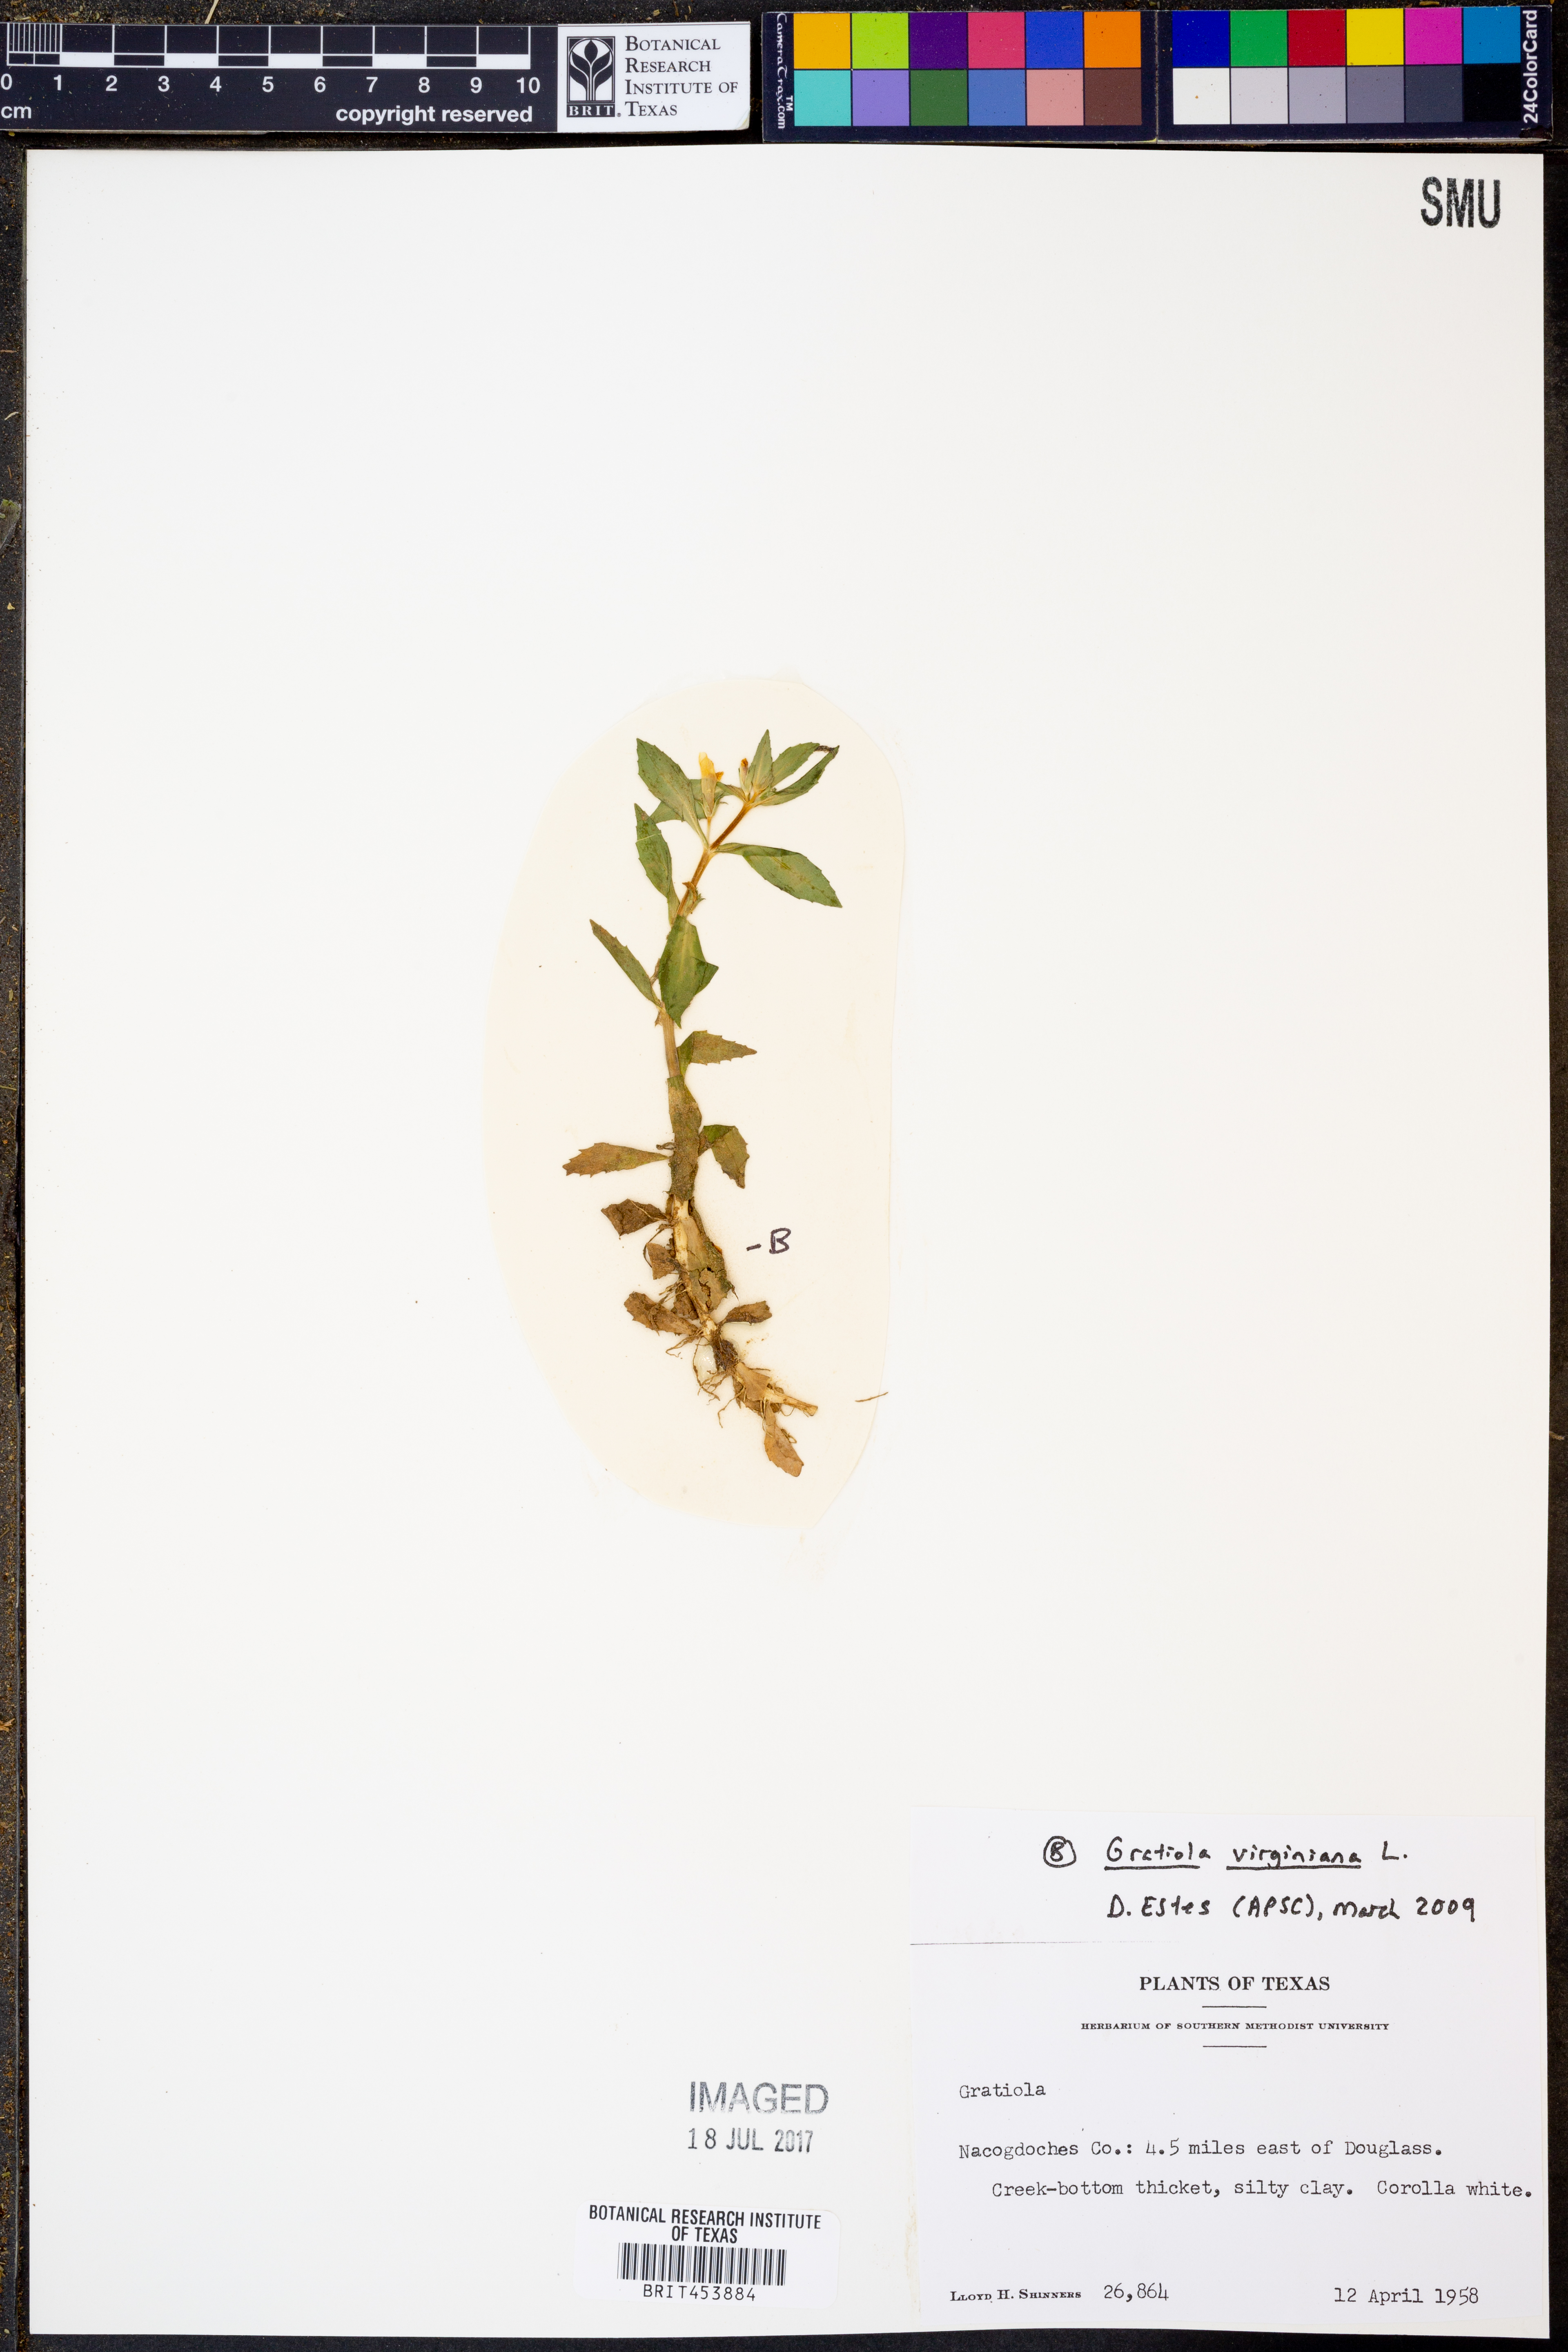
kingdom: Plantae
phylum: Tracheophyta
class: Magnoliopsida
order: Lamiales
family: Plantaginaceae
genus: Gratiola
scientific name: Gratiola virginiana
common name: Roundfruit hedgehyssop
